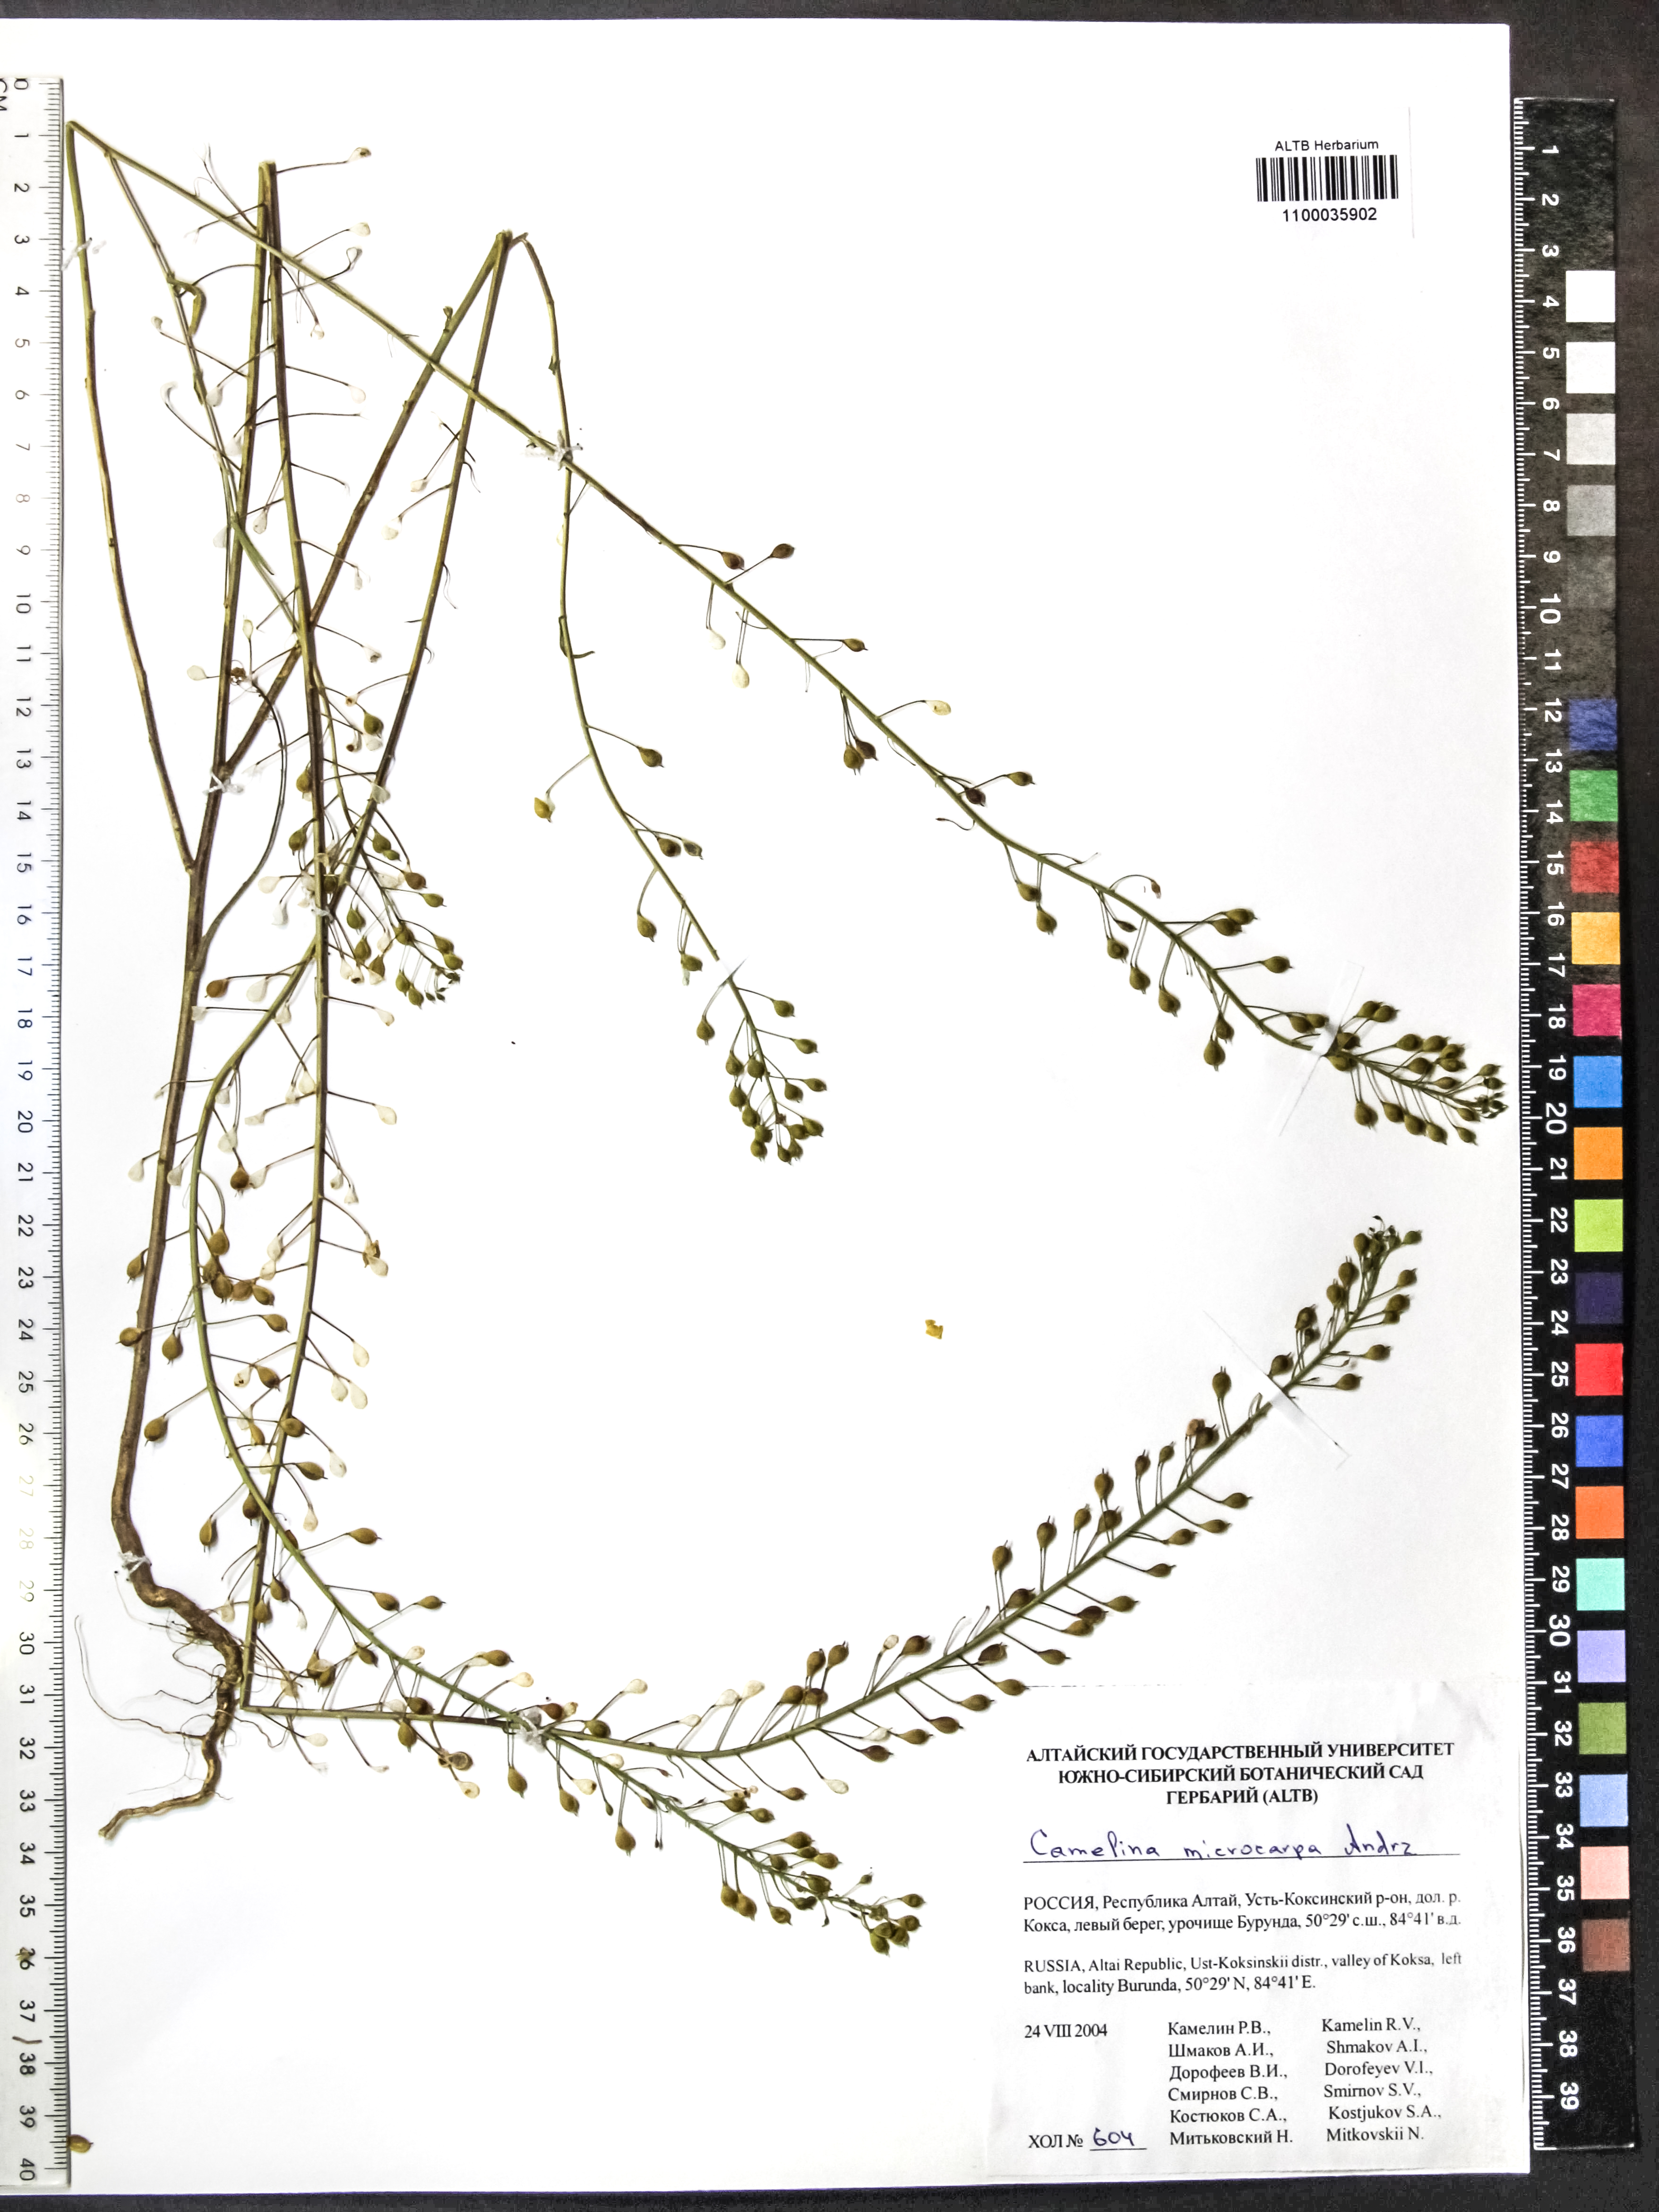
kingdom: Plantae
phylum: Tracheophyta
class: Magnoliopsida
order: Brassicales
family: Brassicaceae
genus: Camelina
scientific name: Camelina microcarpa
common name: Lesser gold-of-pleasure
